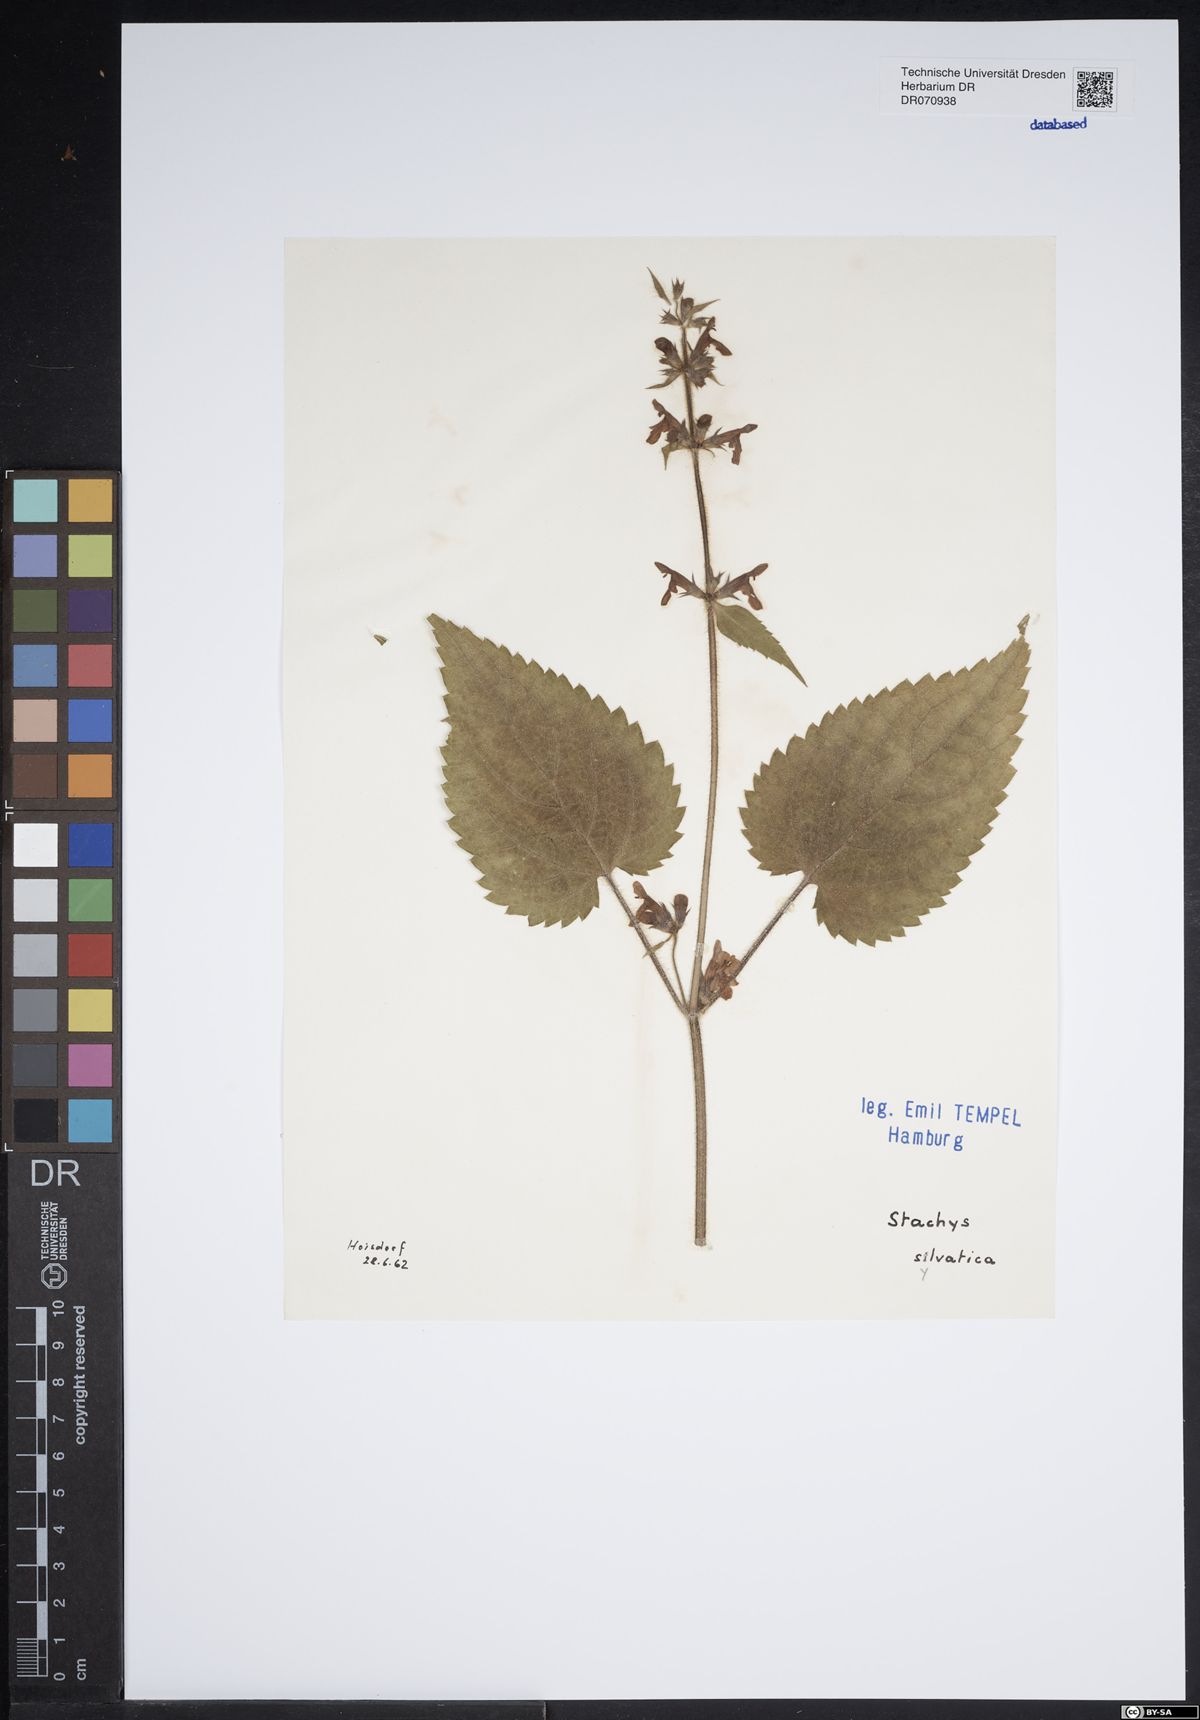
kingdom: Plantae
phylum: Tracheophyta
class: Magnoliopsida
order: Lamiales
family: Lamiaceae
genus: Stachys
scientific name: Stachys sylvatica
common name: Hedge woundwort
